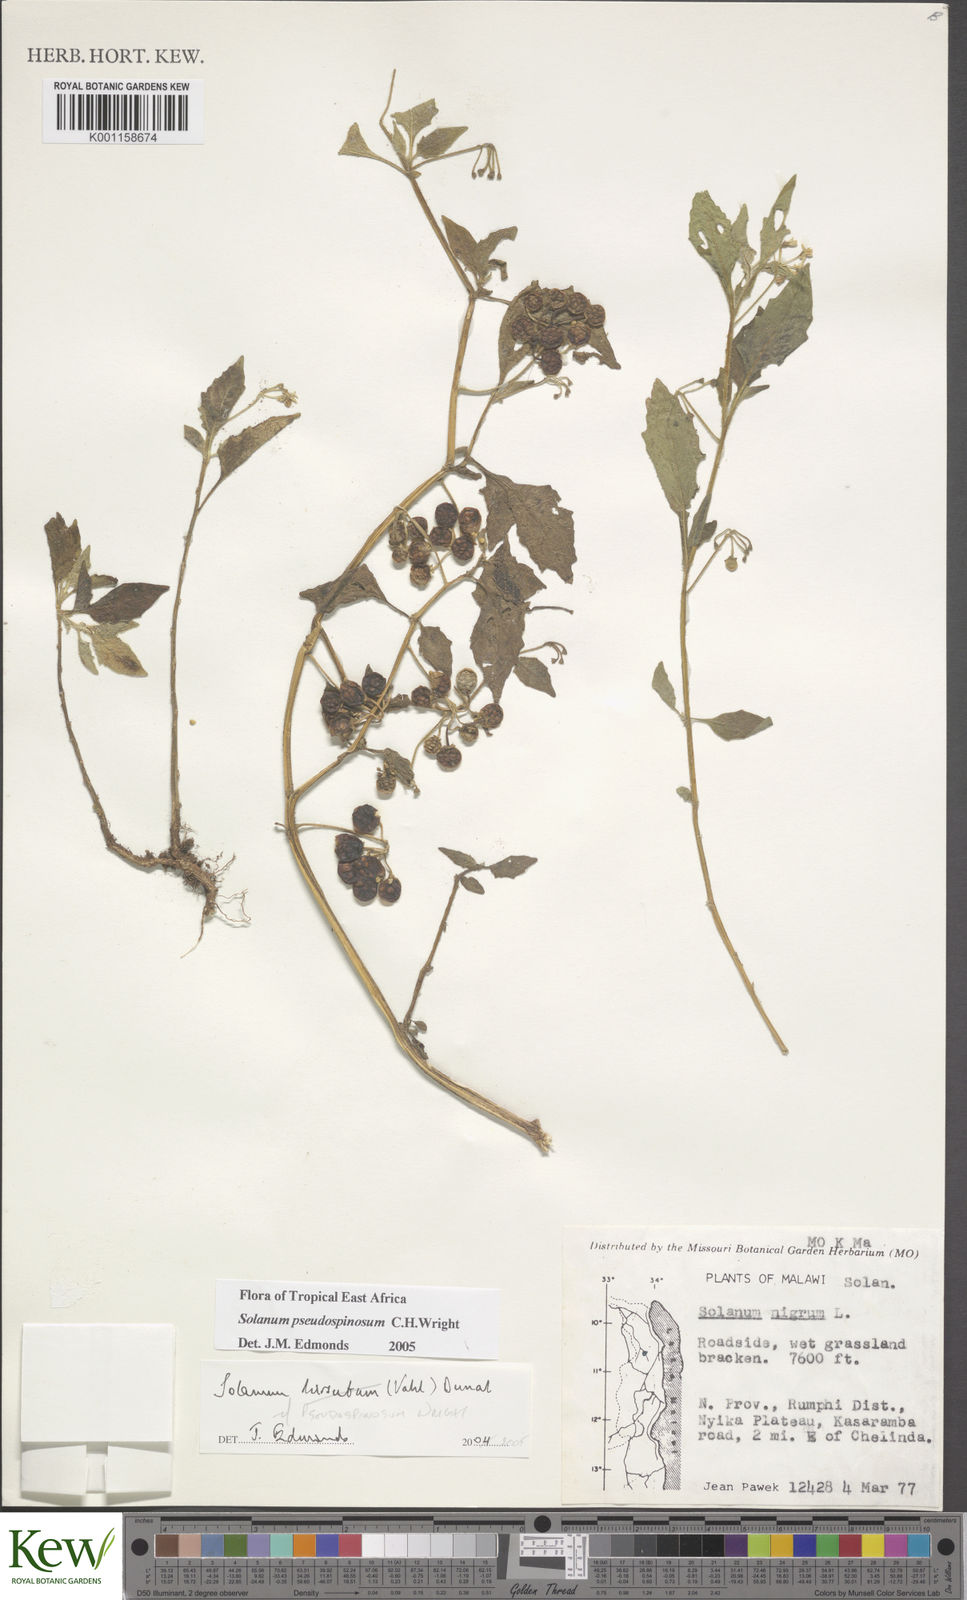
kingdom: Plantae
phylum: Tracheophyta
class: Magnoliopsida
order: Solanales
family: Solanaceae
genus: Solanum
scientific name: Solanum pseudospinosum
